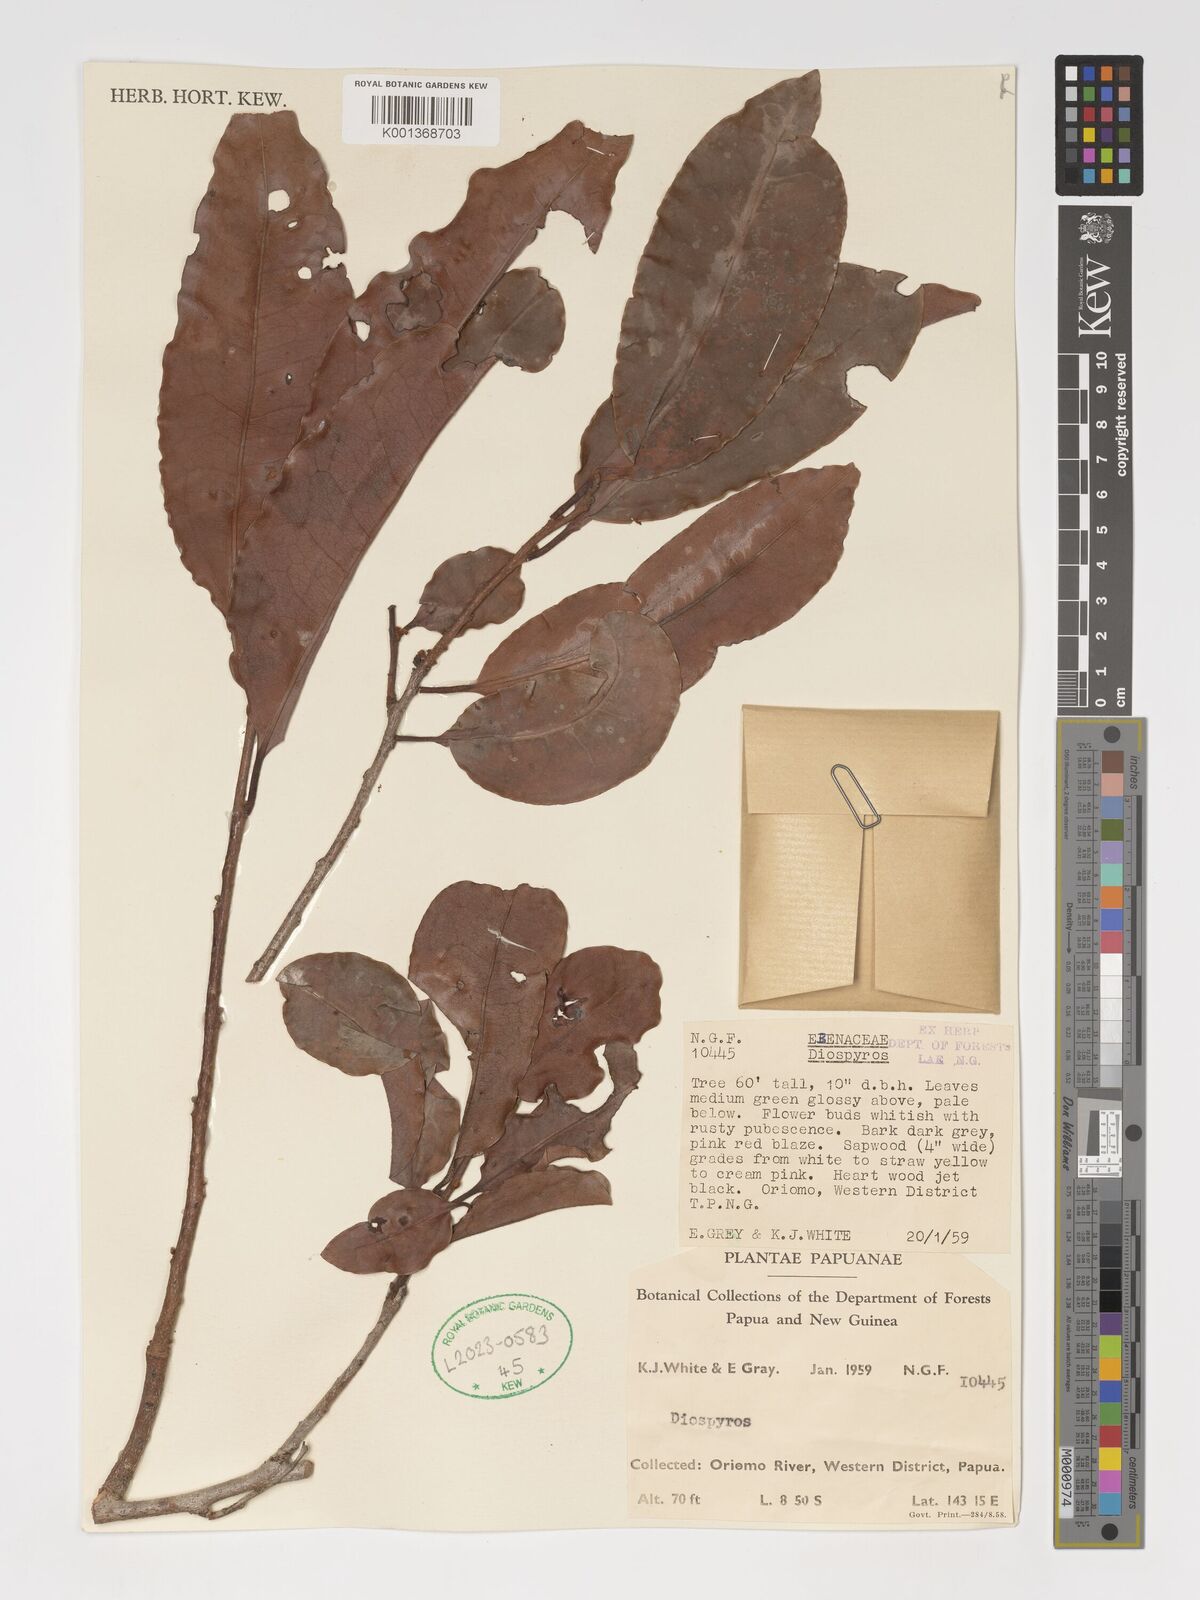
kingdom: Plantae
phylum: Tracheophyta
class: Magnoliopsida
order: Ericales
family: Ebenaceae
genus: Diospyros
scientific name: Diospyros
